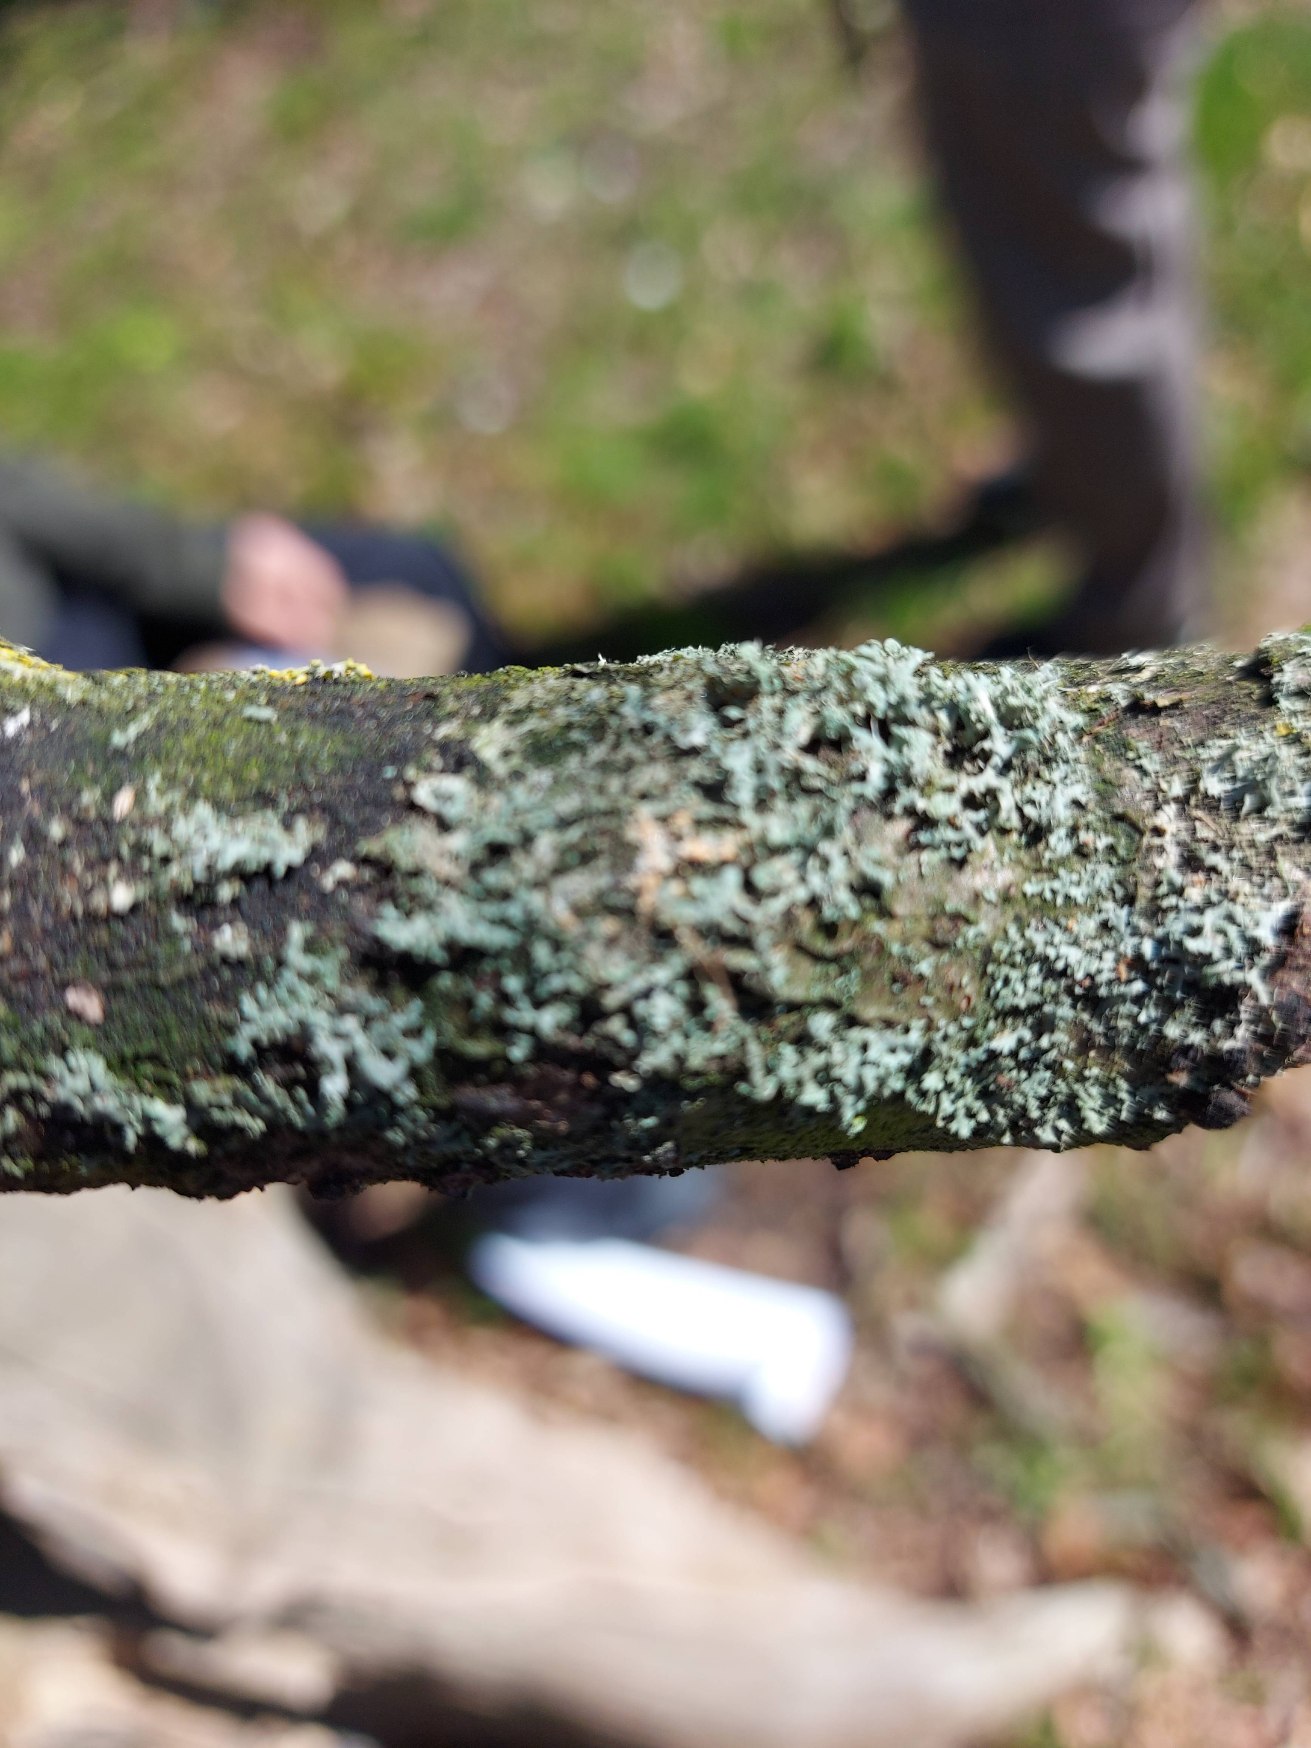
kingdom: Fungi
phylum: Ascomycota
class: Lecanoromycetes
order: Caliciales
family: Physciaceae
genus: Physcia
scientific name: Physcia tenella
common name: Spæd rosetlav
